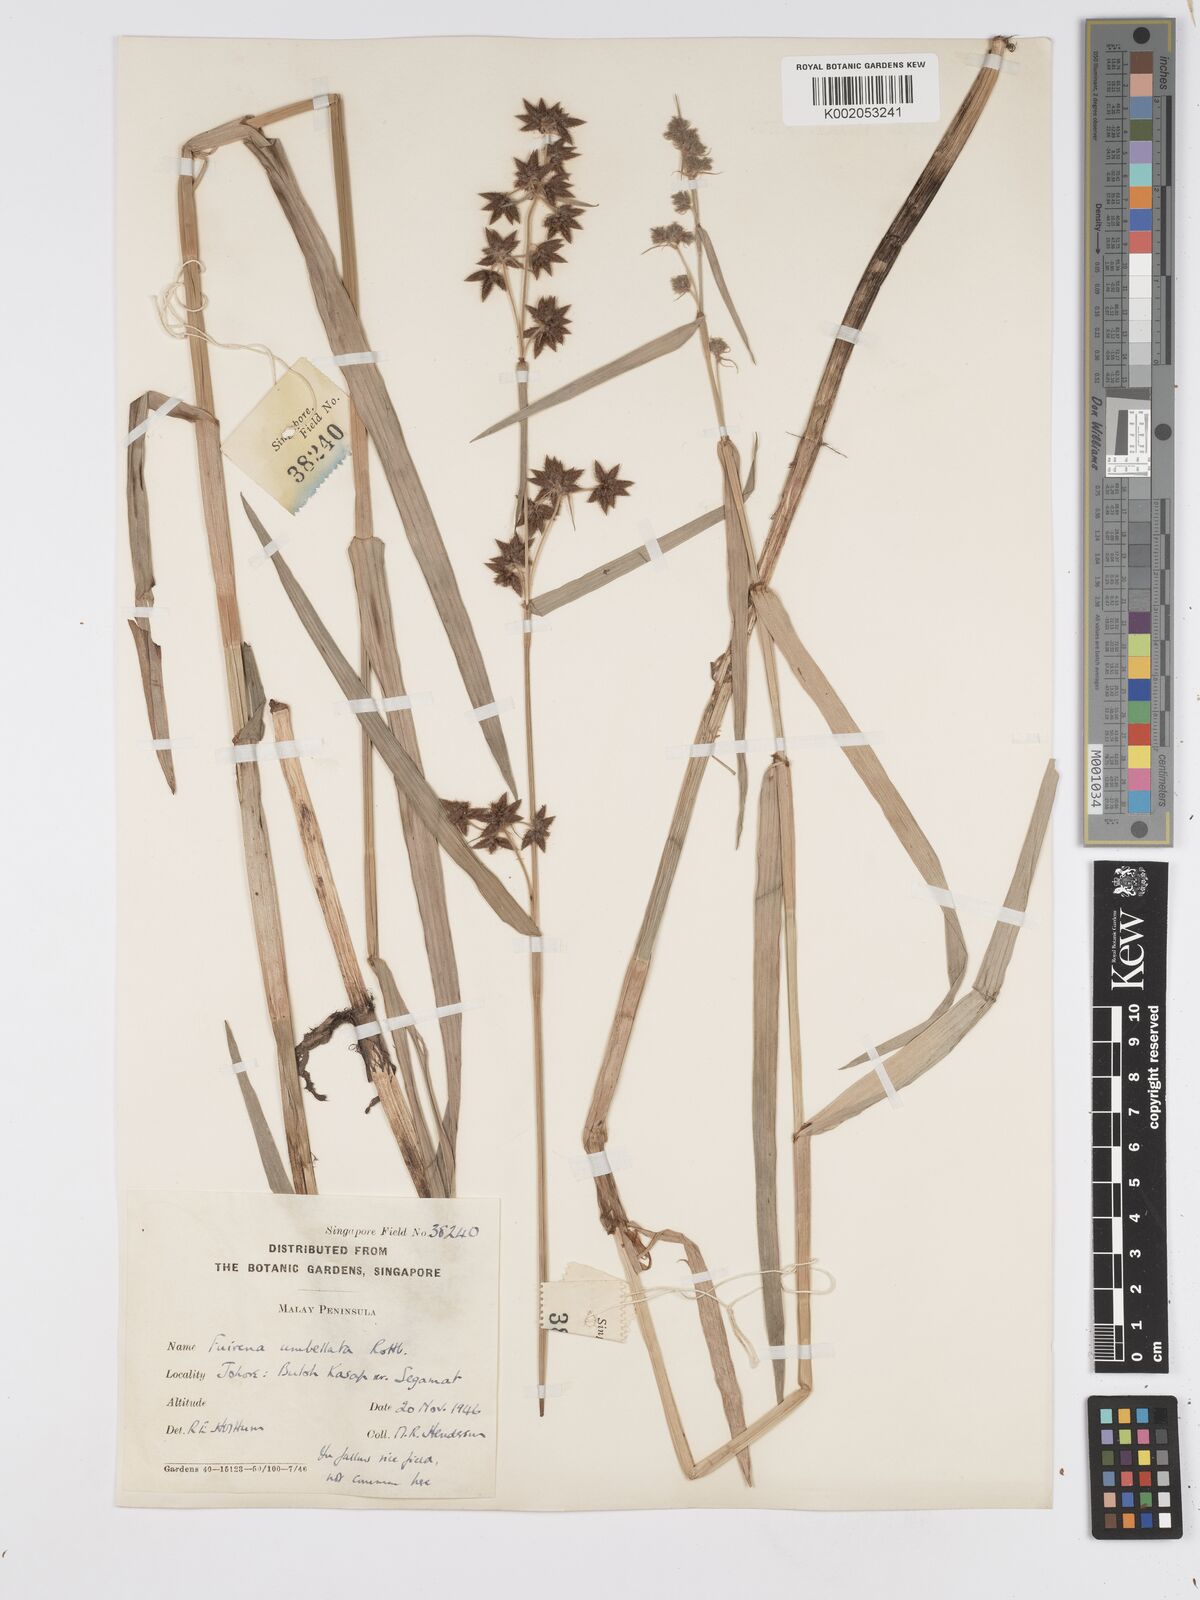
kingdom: Plantae
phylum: Tracheophyta
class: Liliopsida
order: Poales
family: Cyperaceae
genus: Fuirena
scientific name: Fuirena umbellata
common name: Yefen
